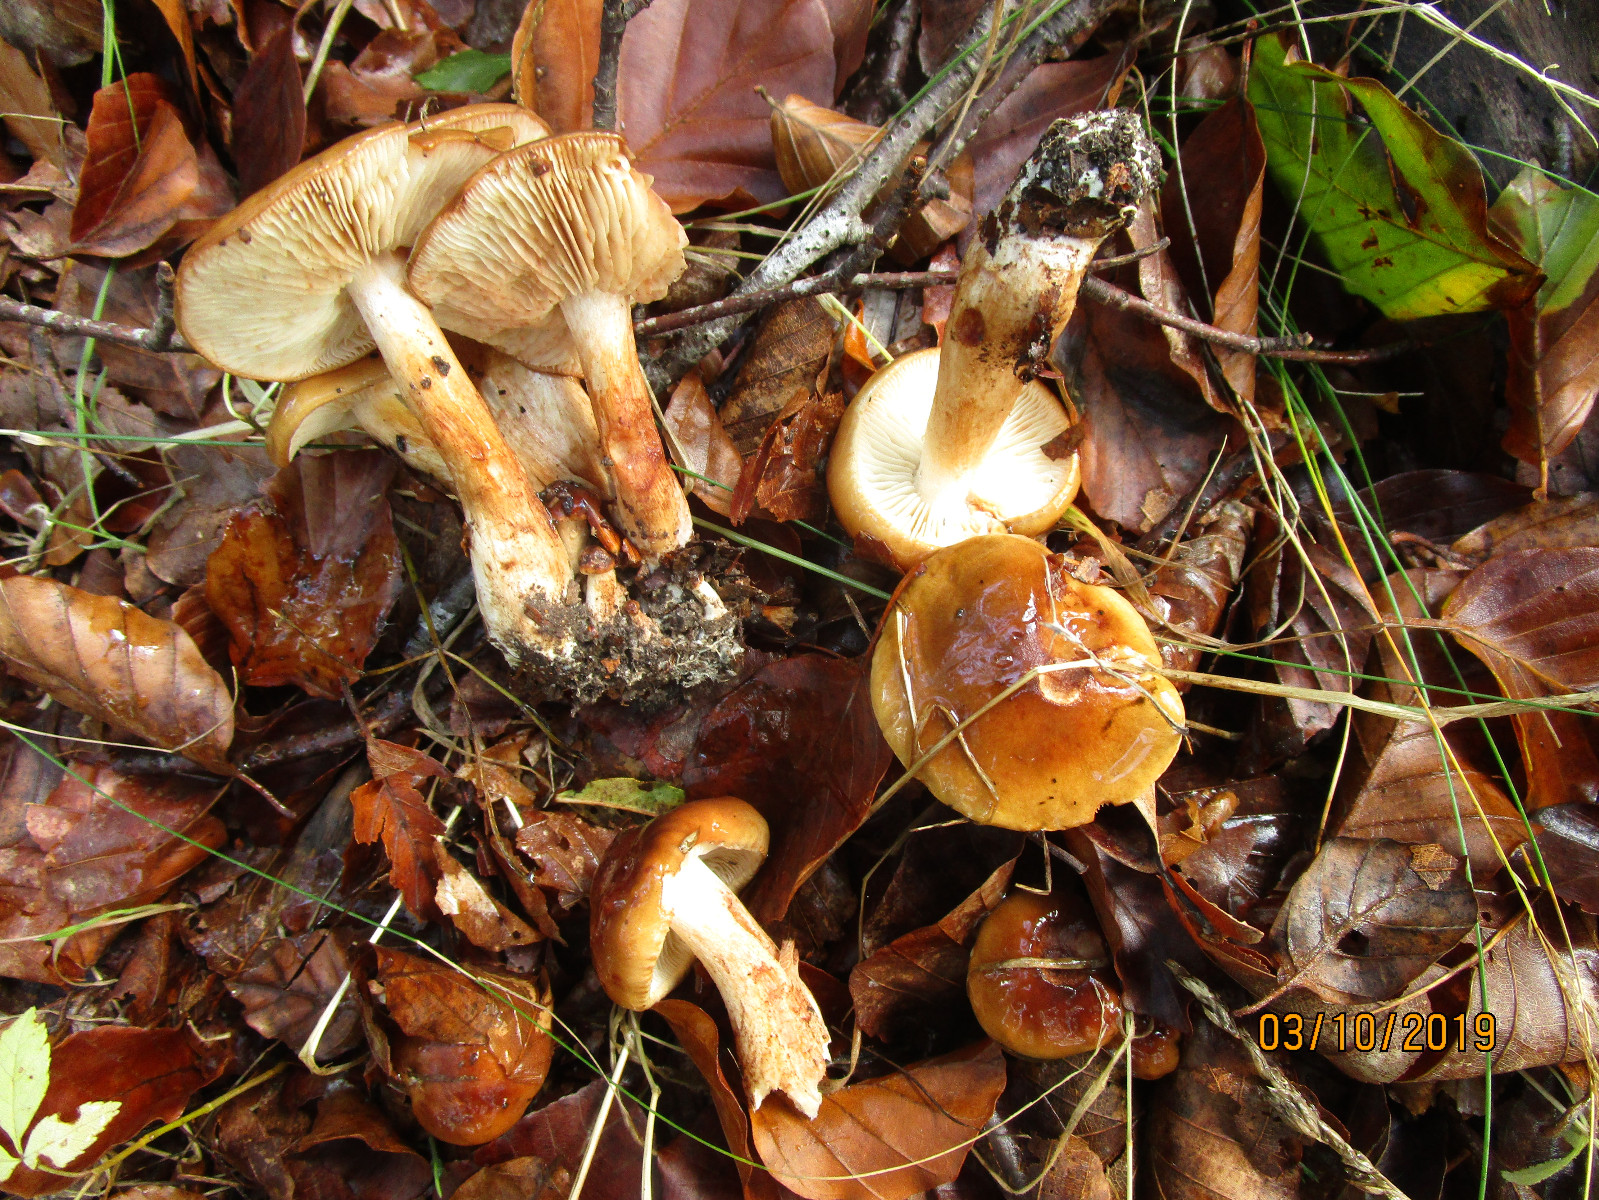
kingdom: Fungi
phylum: Basidiomycota
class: Agaricomycetes
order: Agaricales
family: Tricholomataceae
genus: Tricholoma
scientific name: Tricholoma ustale
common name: sveden ridderhat
